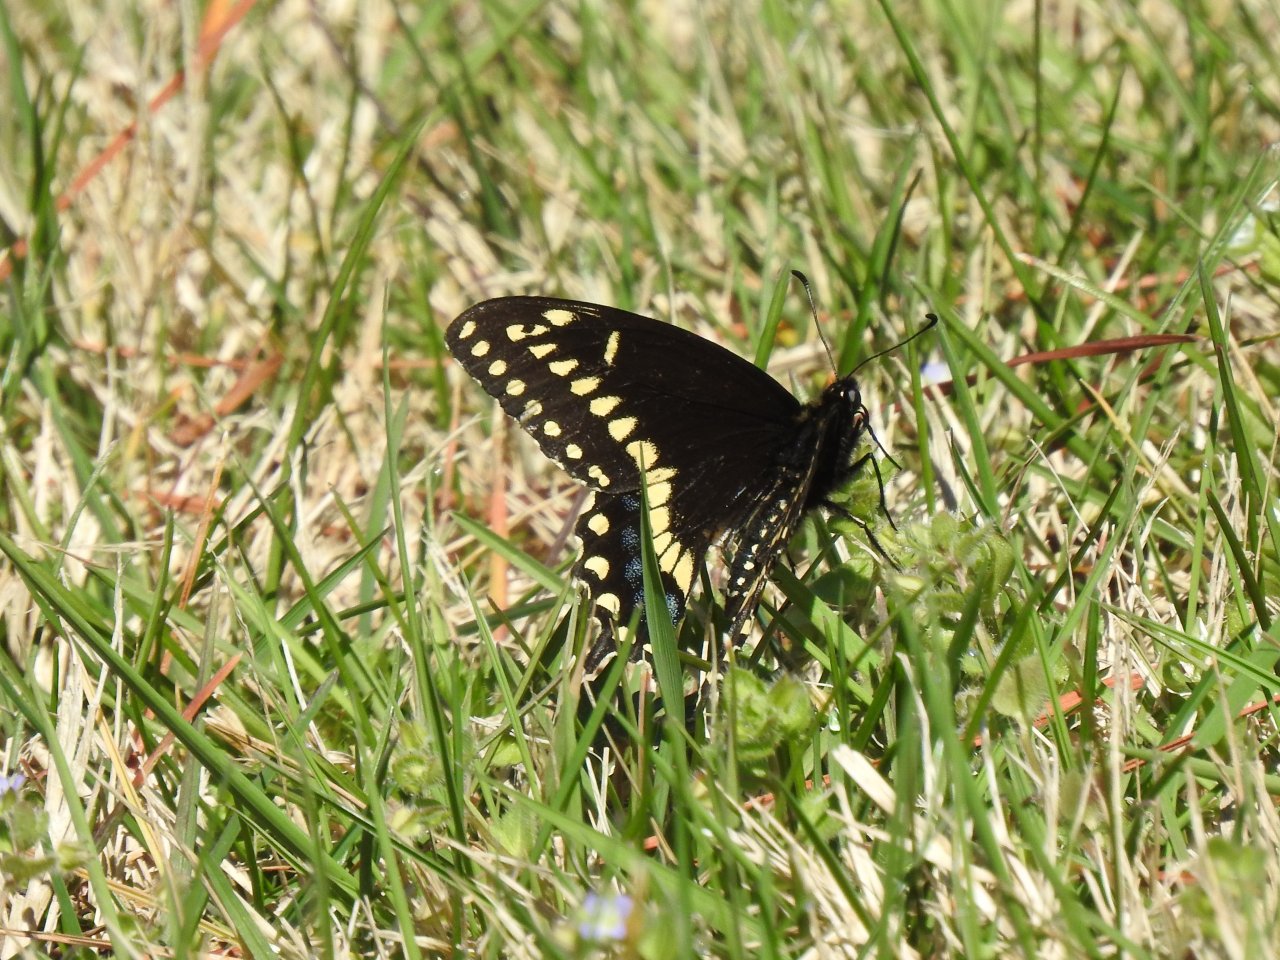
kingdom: Animalia
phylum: Arthropoda
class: Insecta
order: Lepidoptera
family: Papilionidae
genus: Papilio
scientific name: Papilio polyxenes
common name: Black Swallowtail
